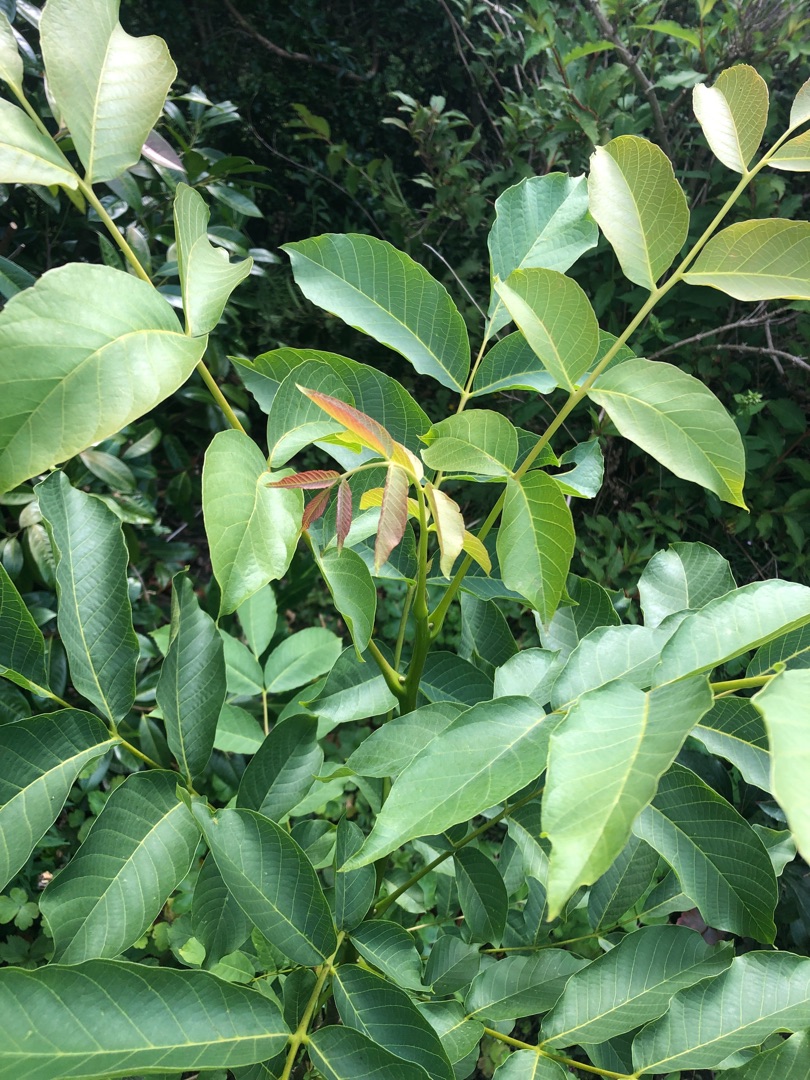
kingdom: Plantae
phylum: Tracheophyta
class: Magnoliopsida
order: Fagales
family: Juglandaceae
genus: Juglans
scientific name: Juglans regia
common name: Almindelig valnød
